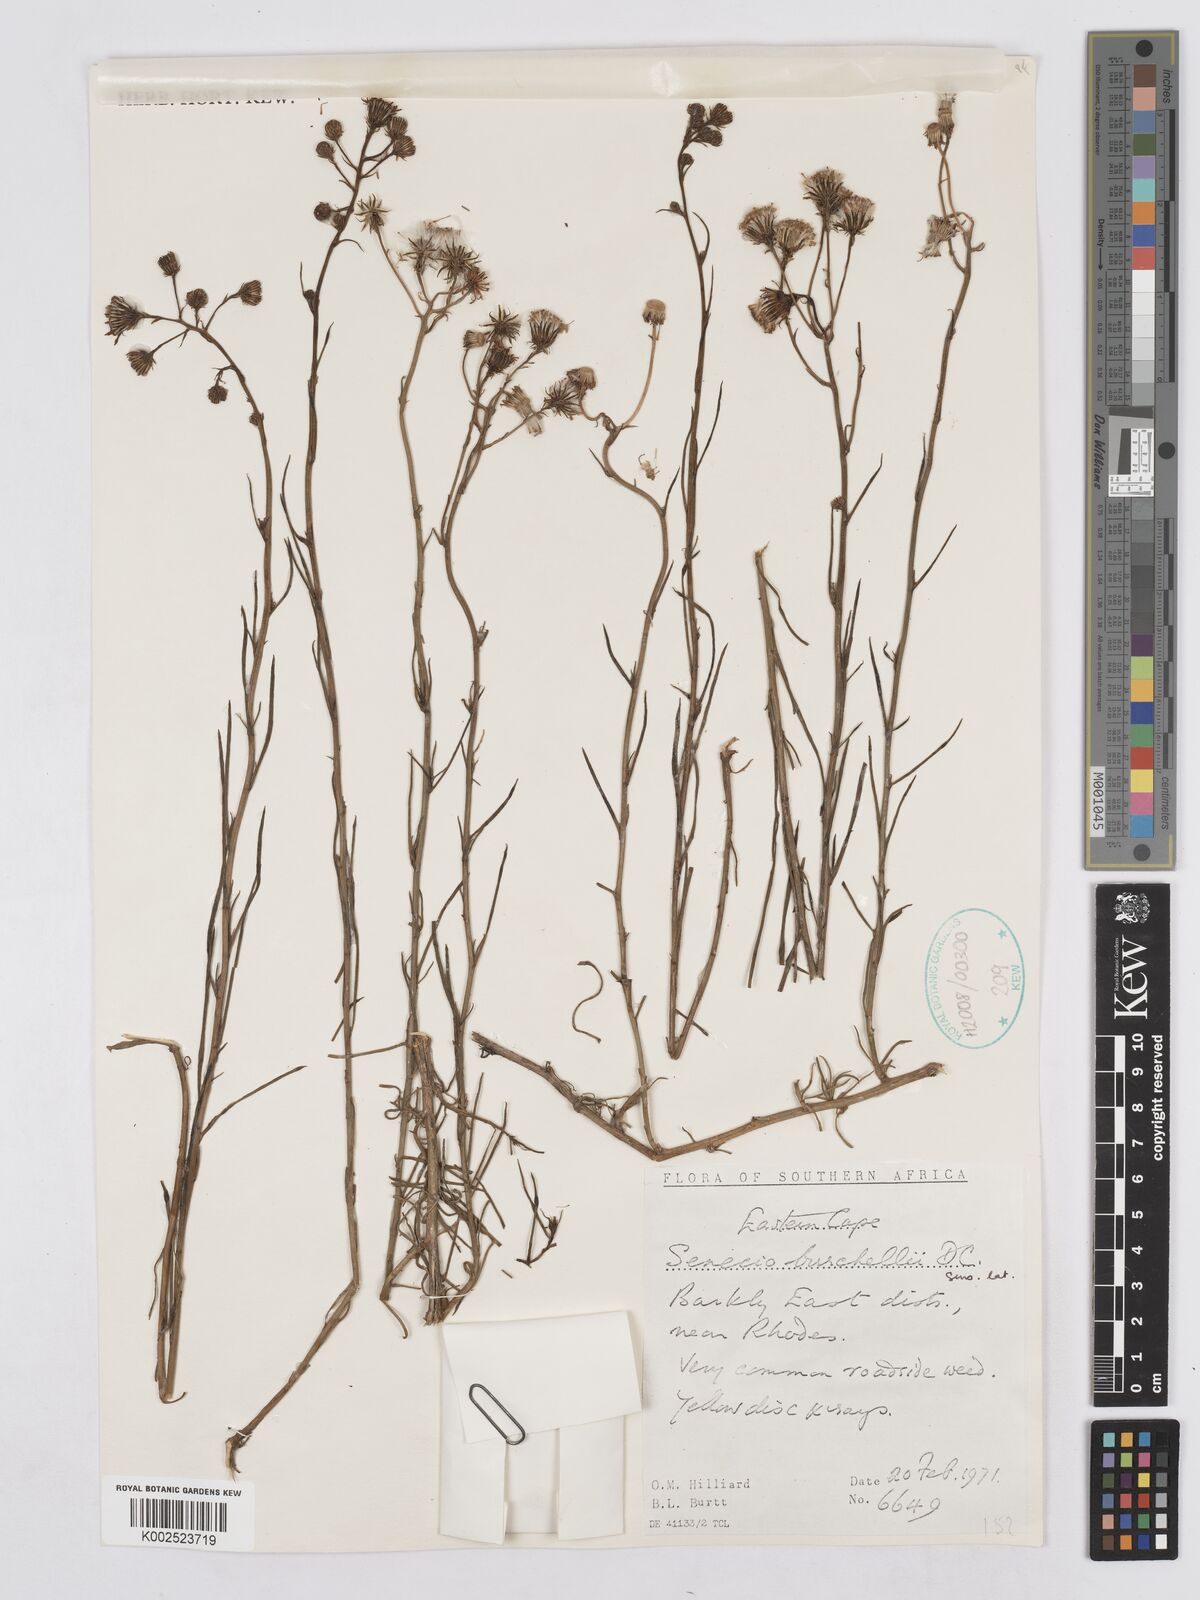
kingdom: Plantae
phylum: Tracheophyta
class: Magnoliopsida
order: Asterales
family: Asteraceae
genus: Senecio
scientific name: Senecio burchellii
